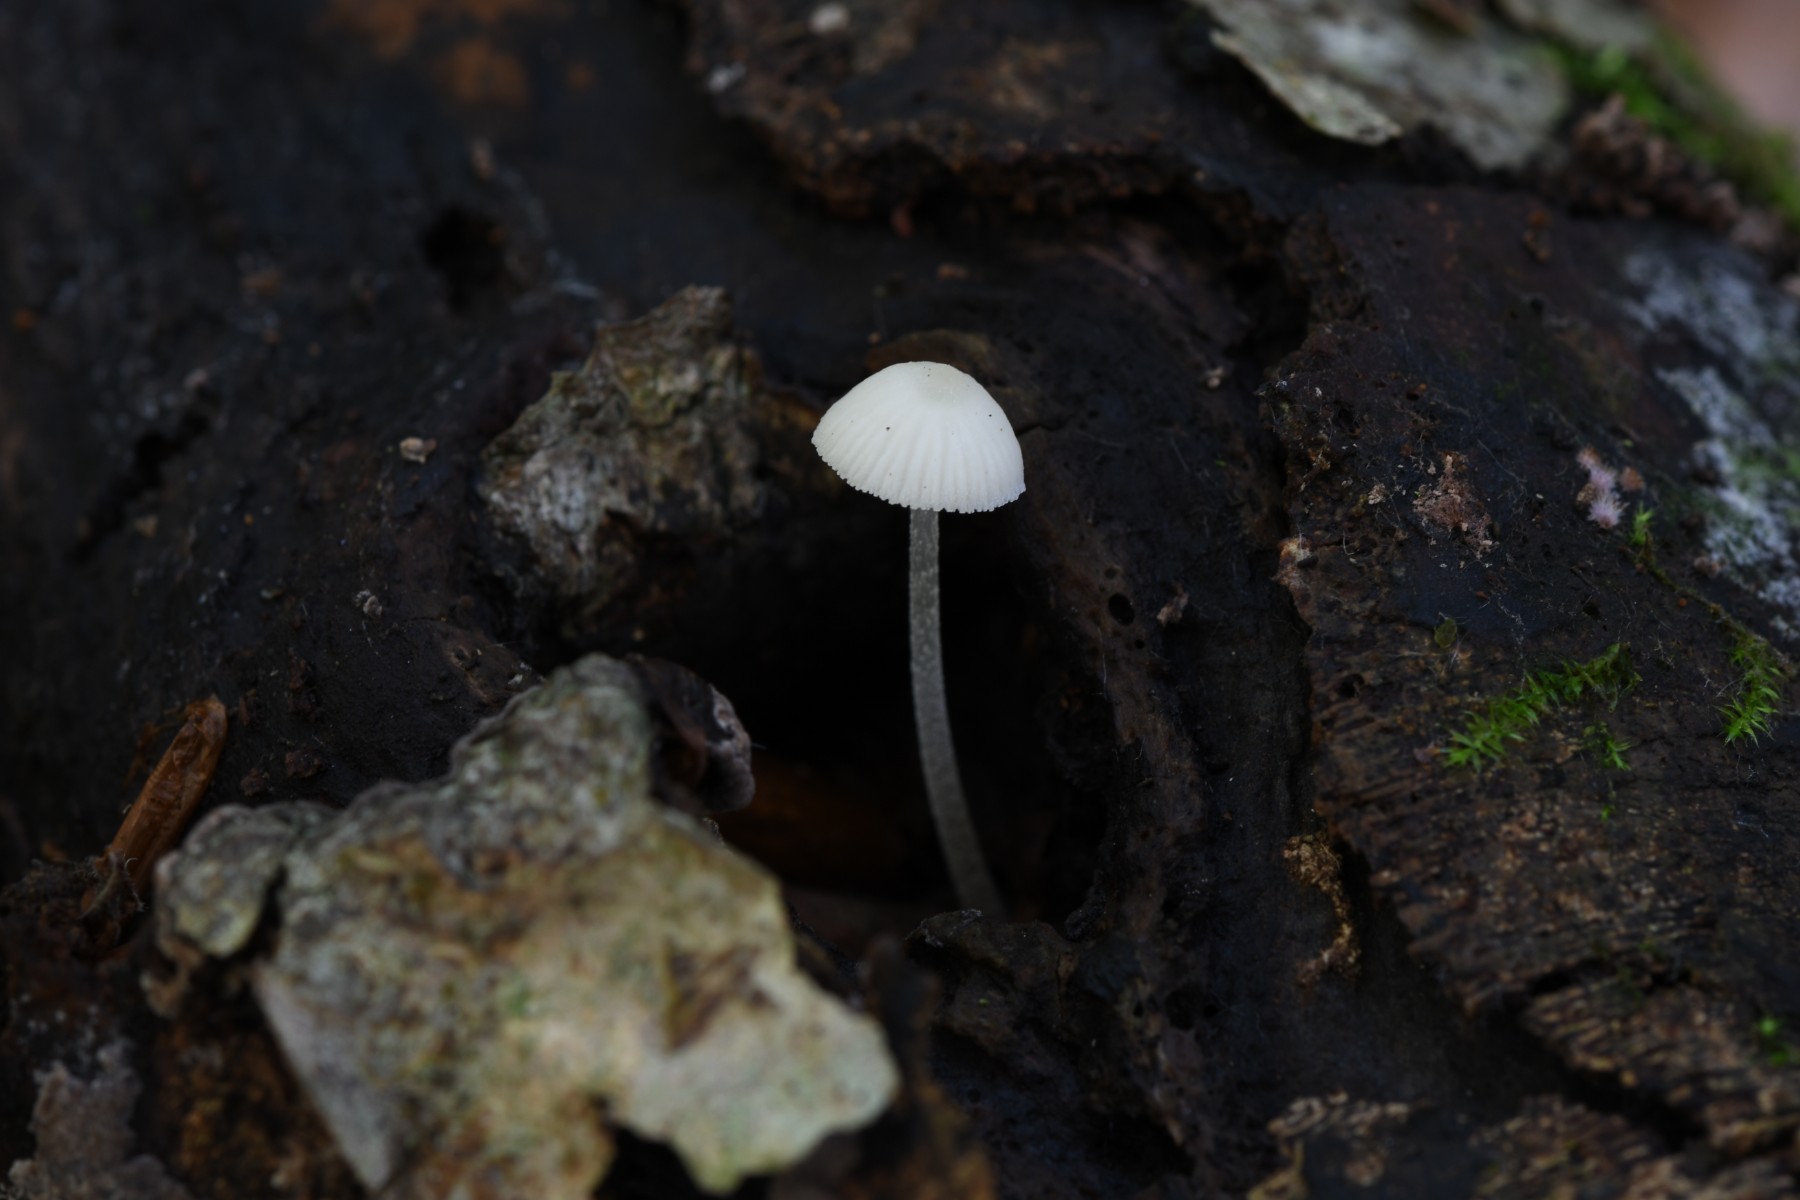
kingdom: Fungi
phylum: Basidiomycota
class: Agaricomycetes
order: Agaricales
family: Mycenaceae
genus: Mycena
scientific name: Mycena
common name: huesvamp
